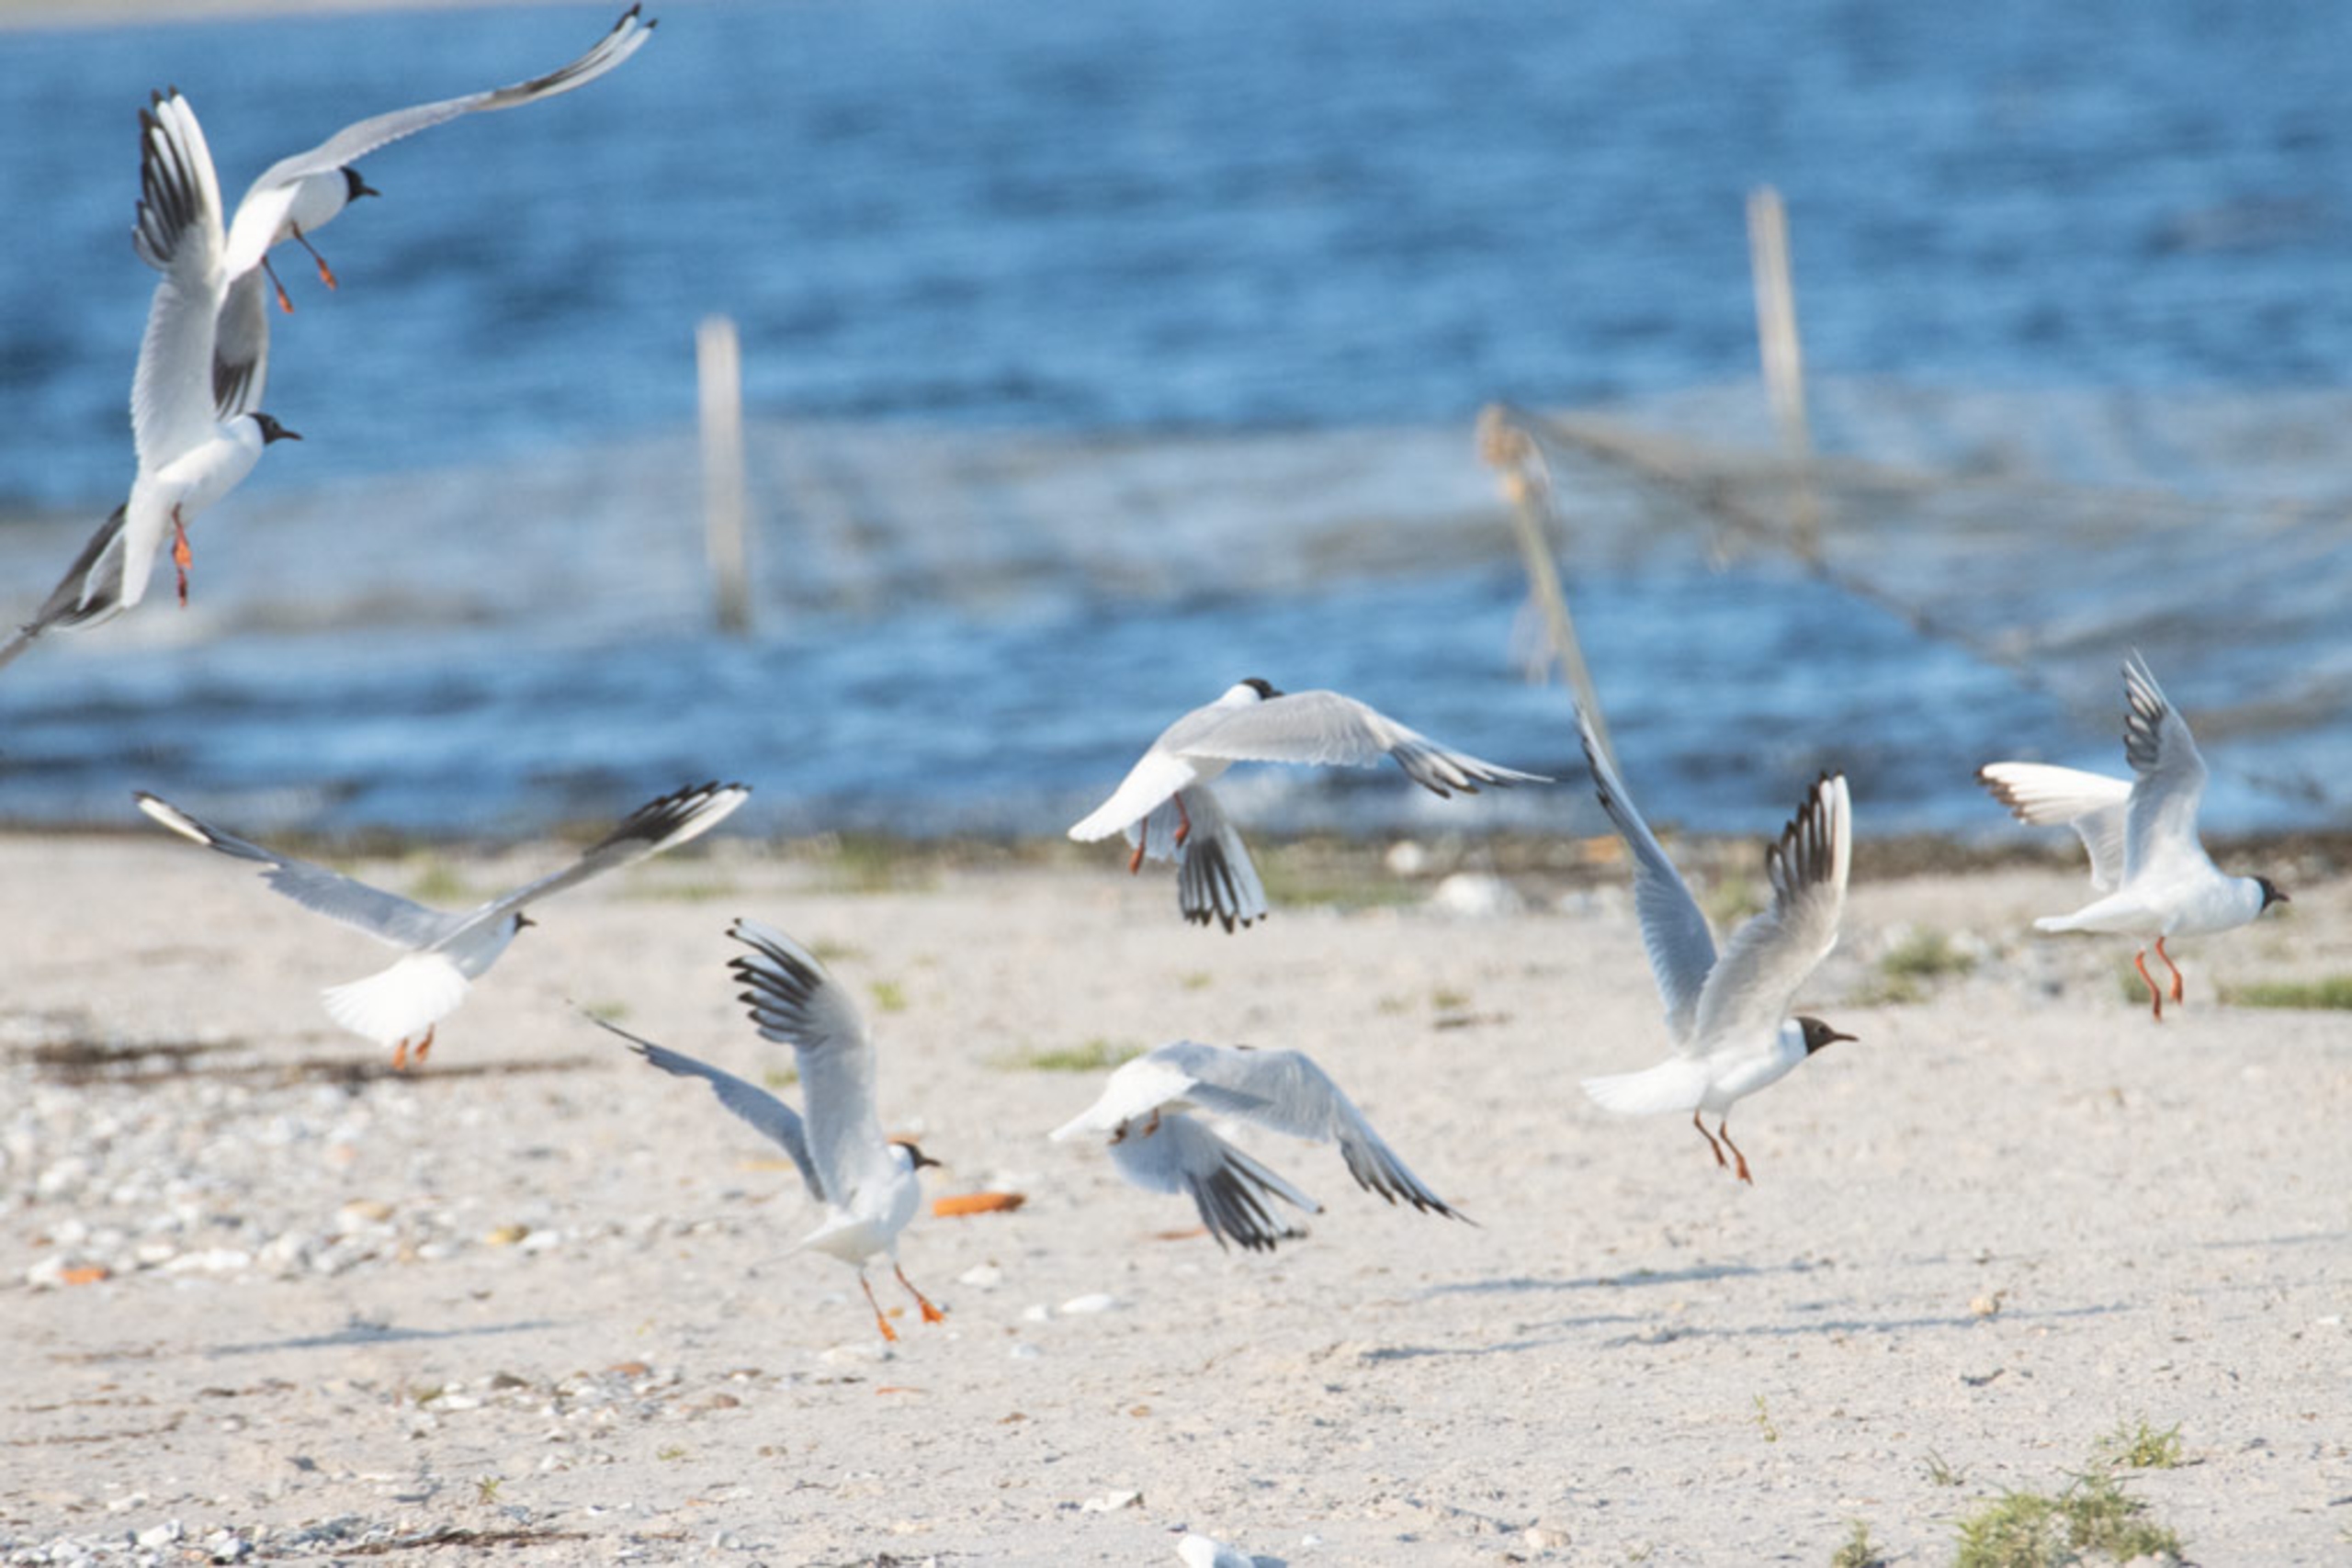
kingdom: Animalia
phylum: Chordata
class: Aves
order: Charadriiformes
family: Laridae
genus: Chroicocephalus
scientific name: Chroicocephalus ridibundus
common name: Hættemåge
